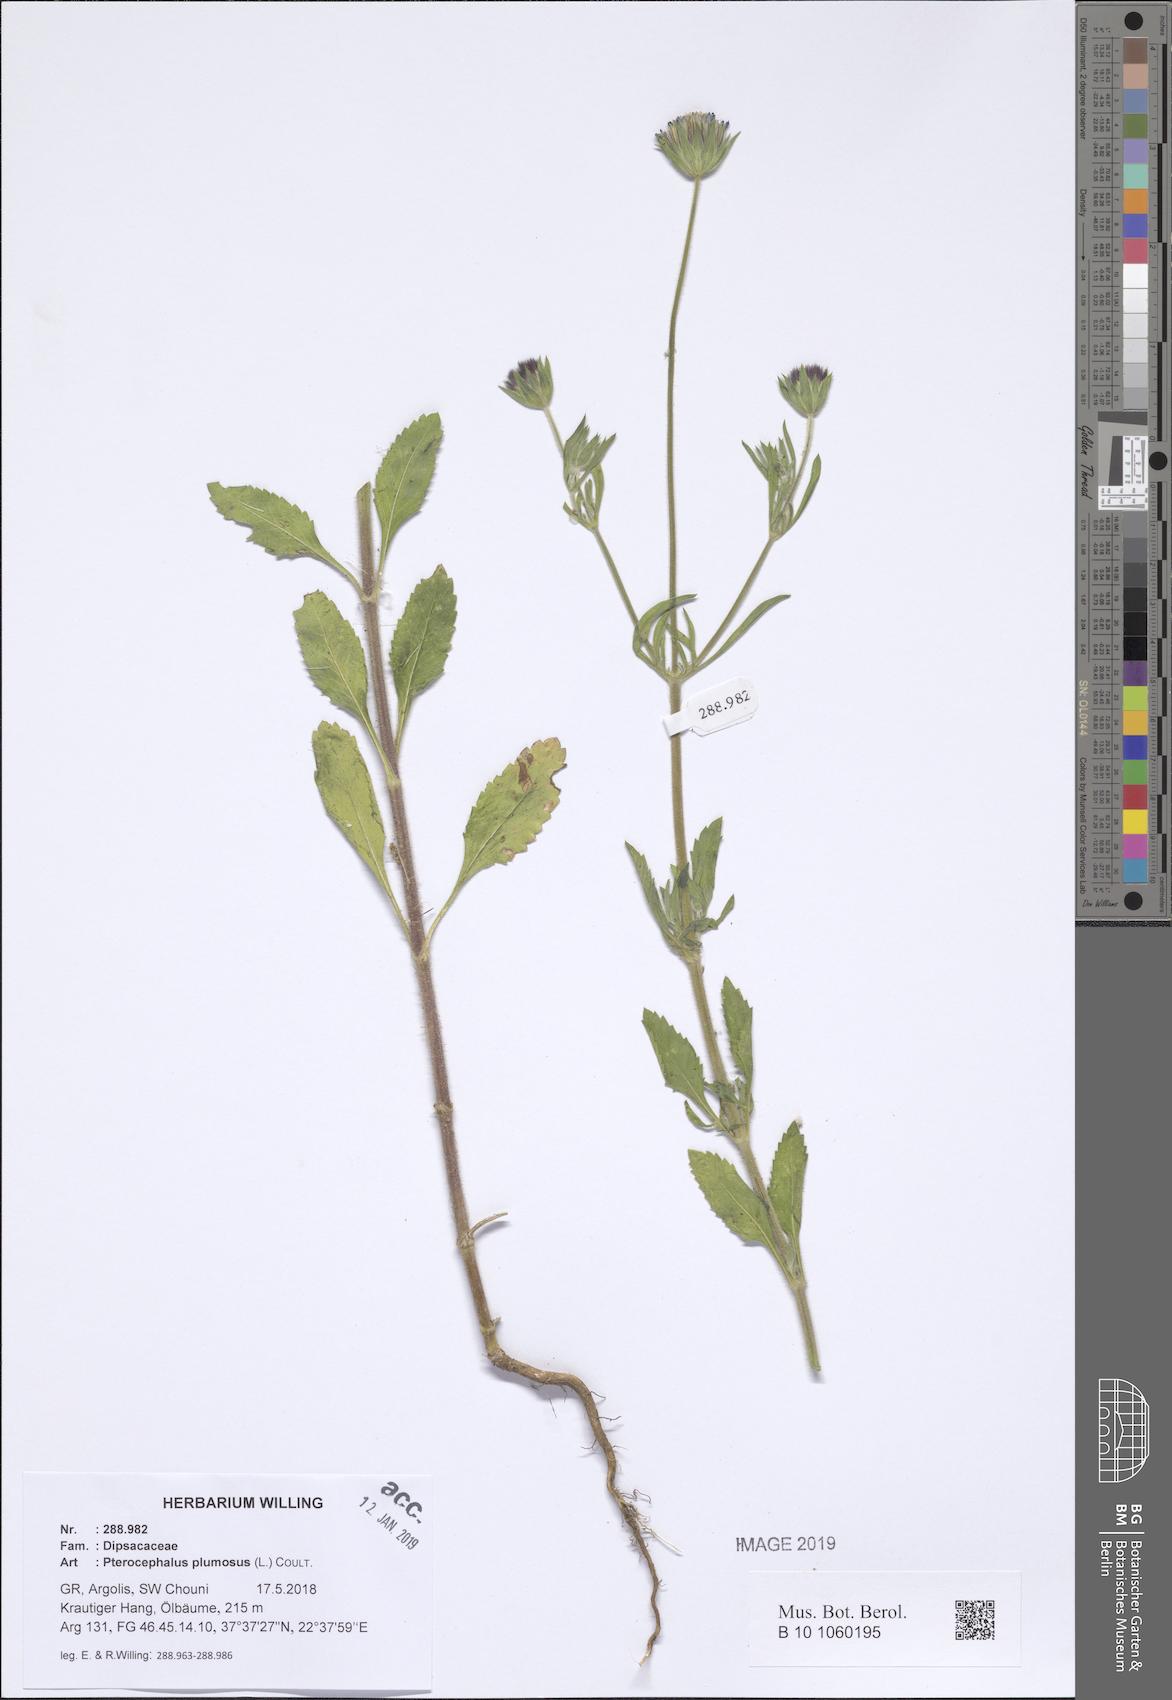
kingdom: Plantae
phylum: Tracheophyta
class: Magnoliopsida
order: Dipsacales
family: Caprifoliaceae
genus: Pterocephalus
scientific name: Pterocephalus plumosus
